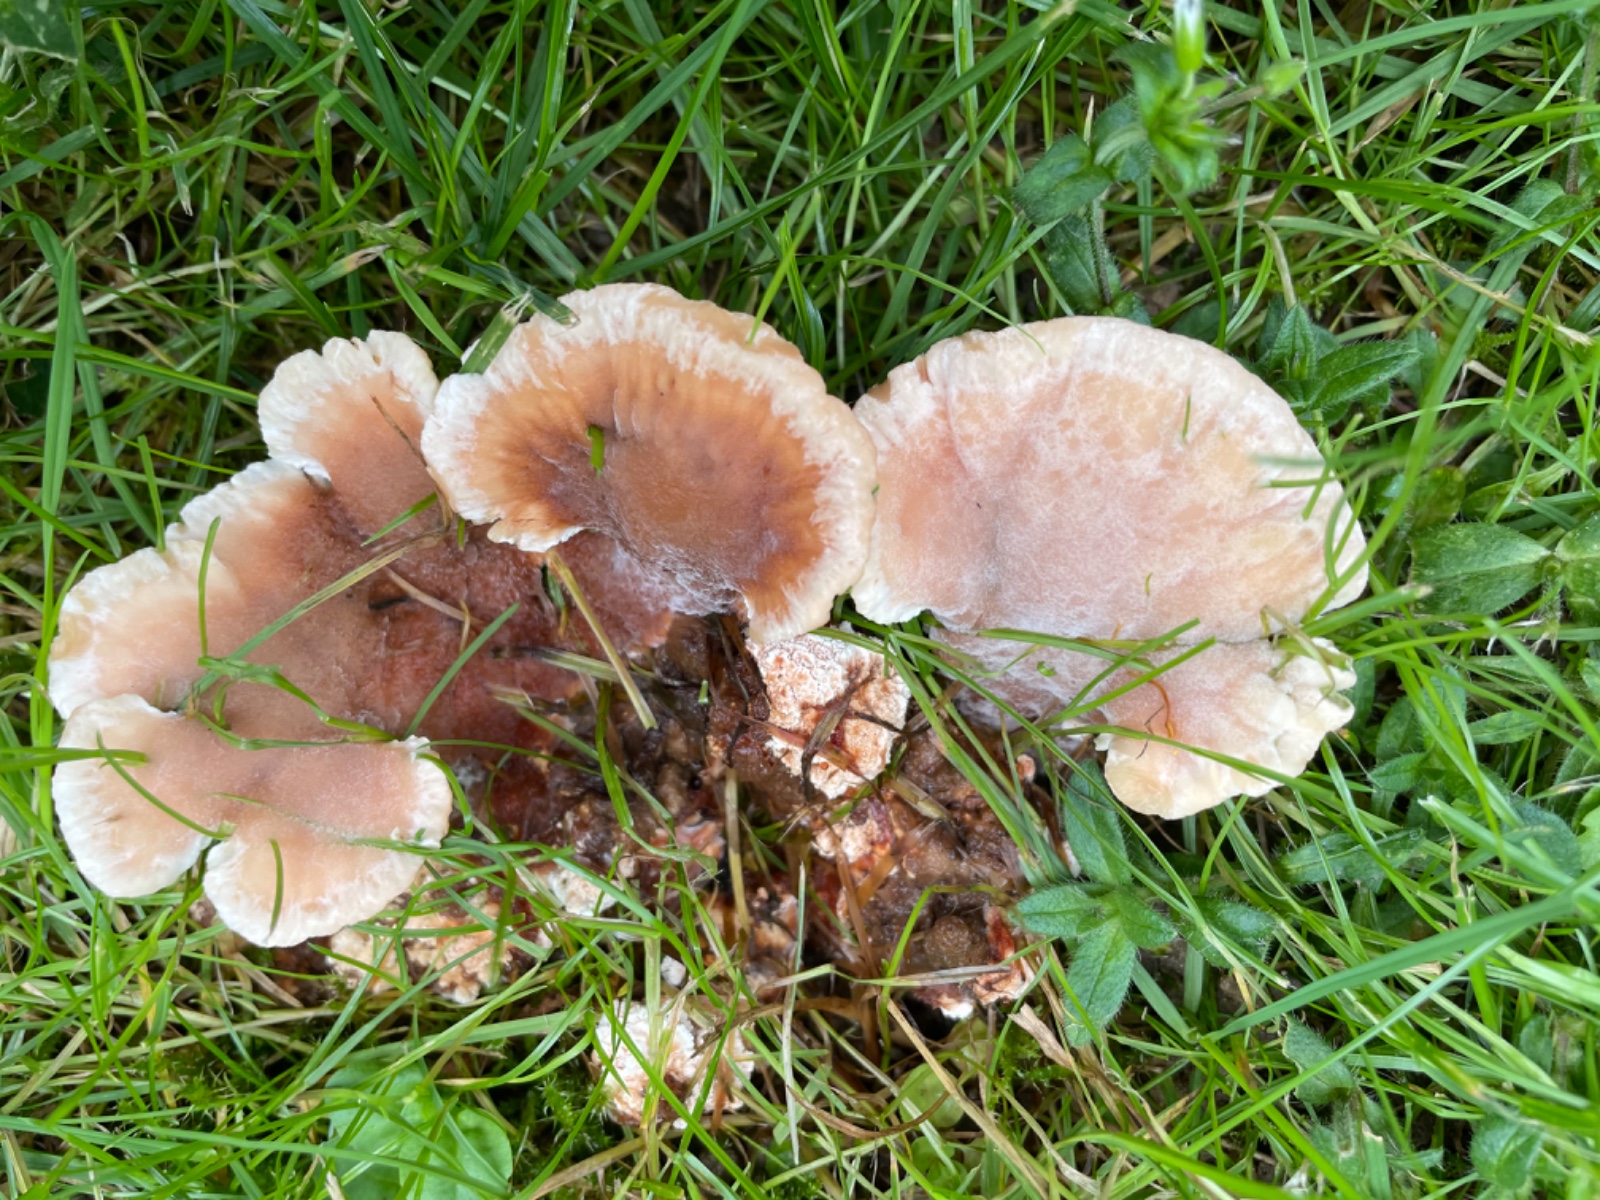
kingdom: Fungi
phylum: Basidiomycota
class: Agaricomycetes
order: Polyporales
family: Podoscyphaceae
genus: Abortiporus
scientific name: Abortiporus biennis
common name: rødmende pjalteporesvamp
